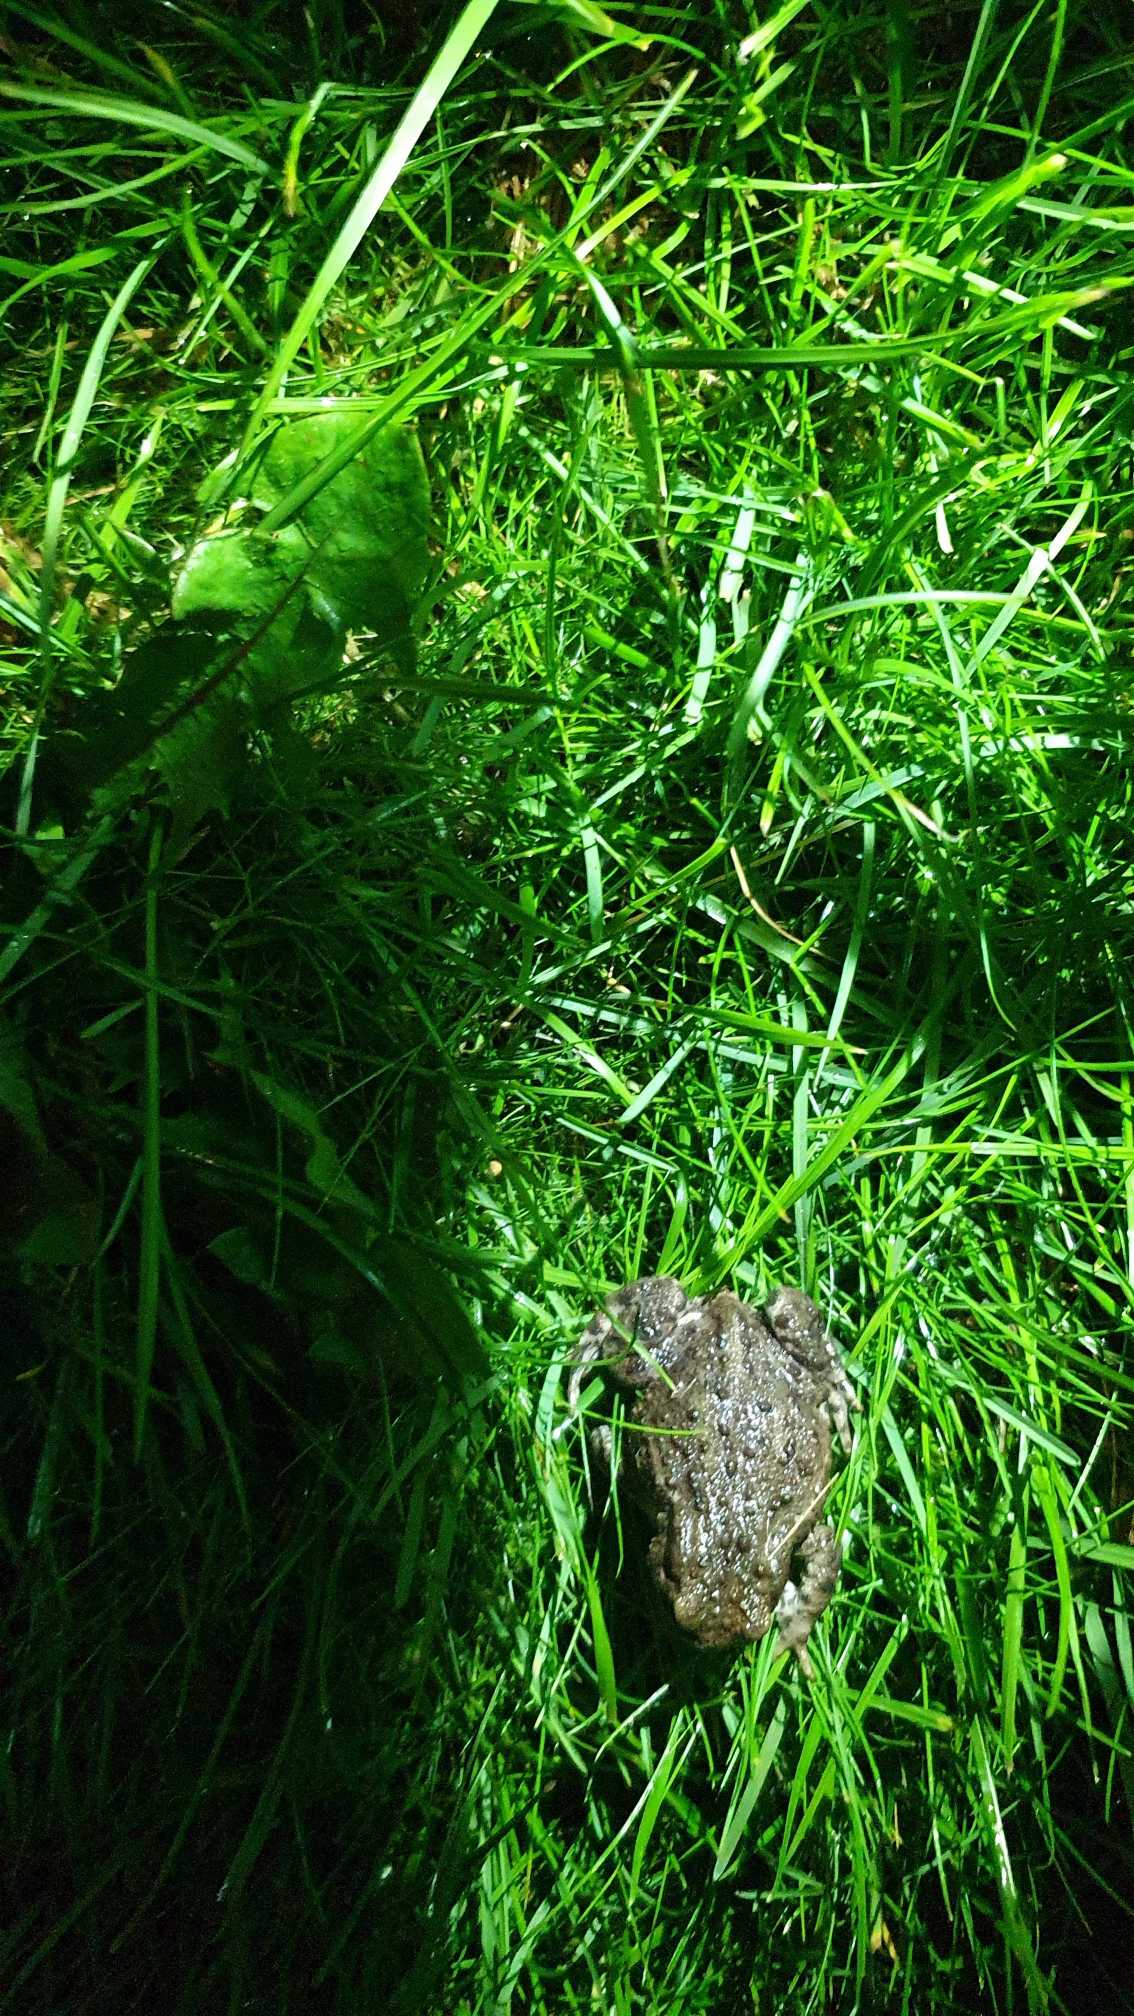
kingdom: Animalia
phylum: Chordata
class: Amphibia
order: Anura
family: Bufonidae
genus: Bufo
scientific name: Bufo bufo
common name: Skrubtudse
